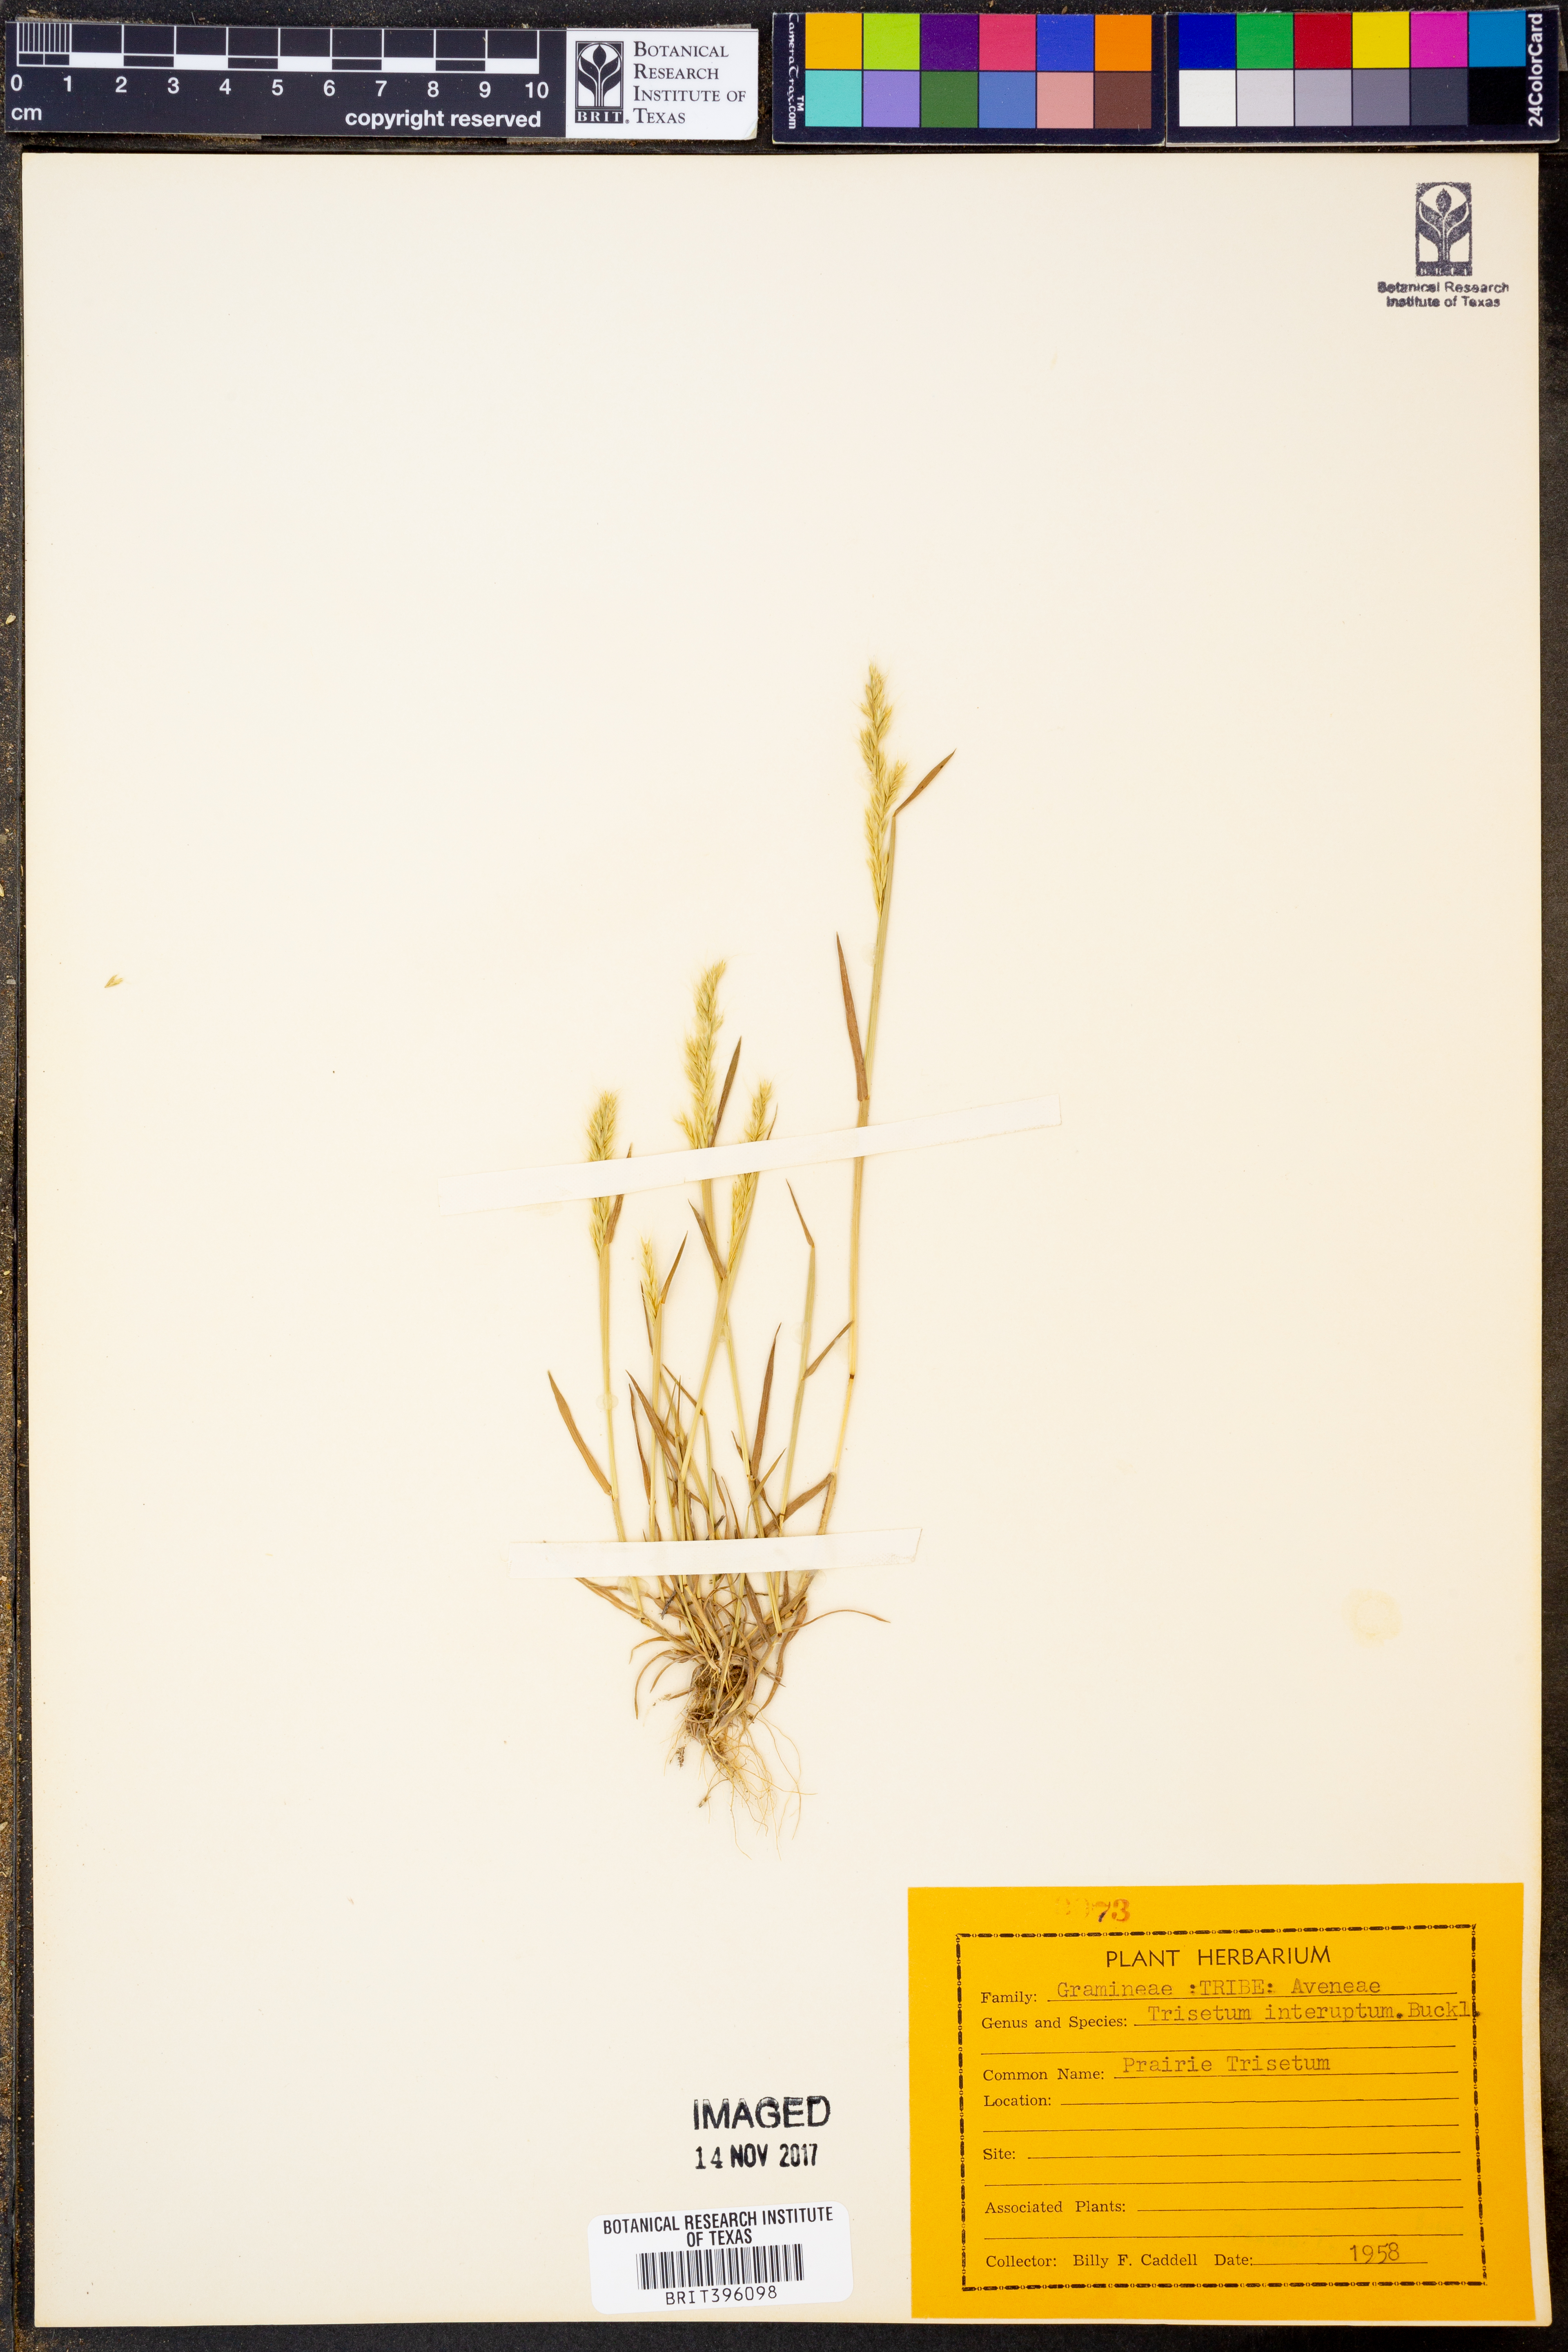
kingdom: Plantae
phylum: Tracheophyta
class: Liliopsida
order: Poales
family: Poaceae
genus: Sphenopholis
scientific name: Sphenopholis interrupta
